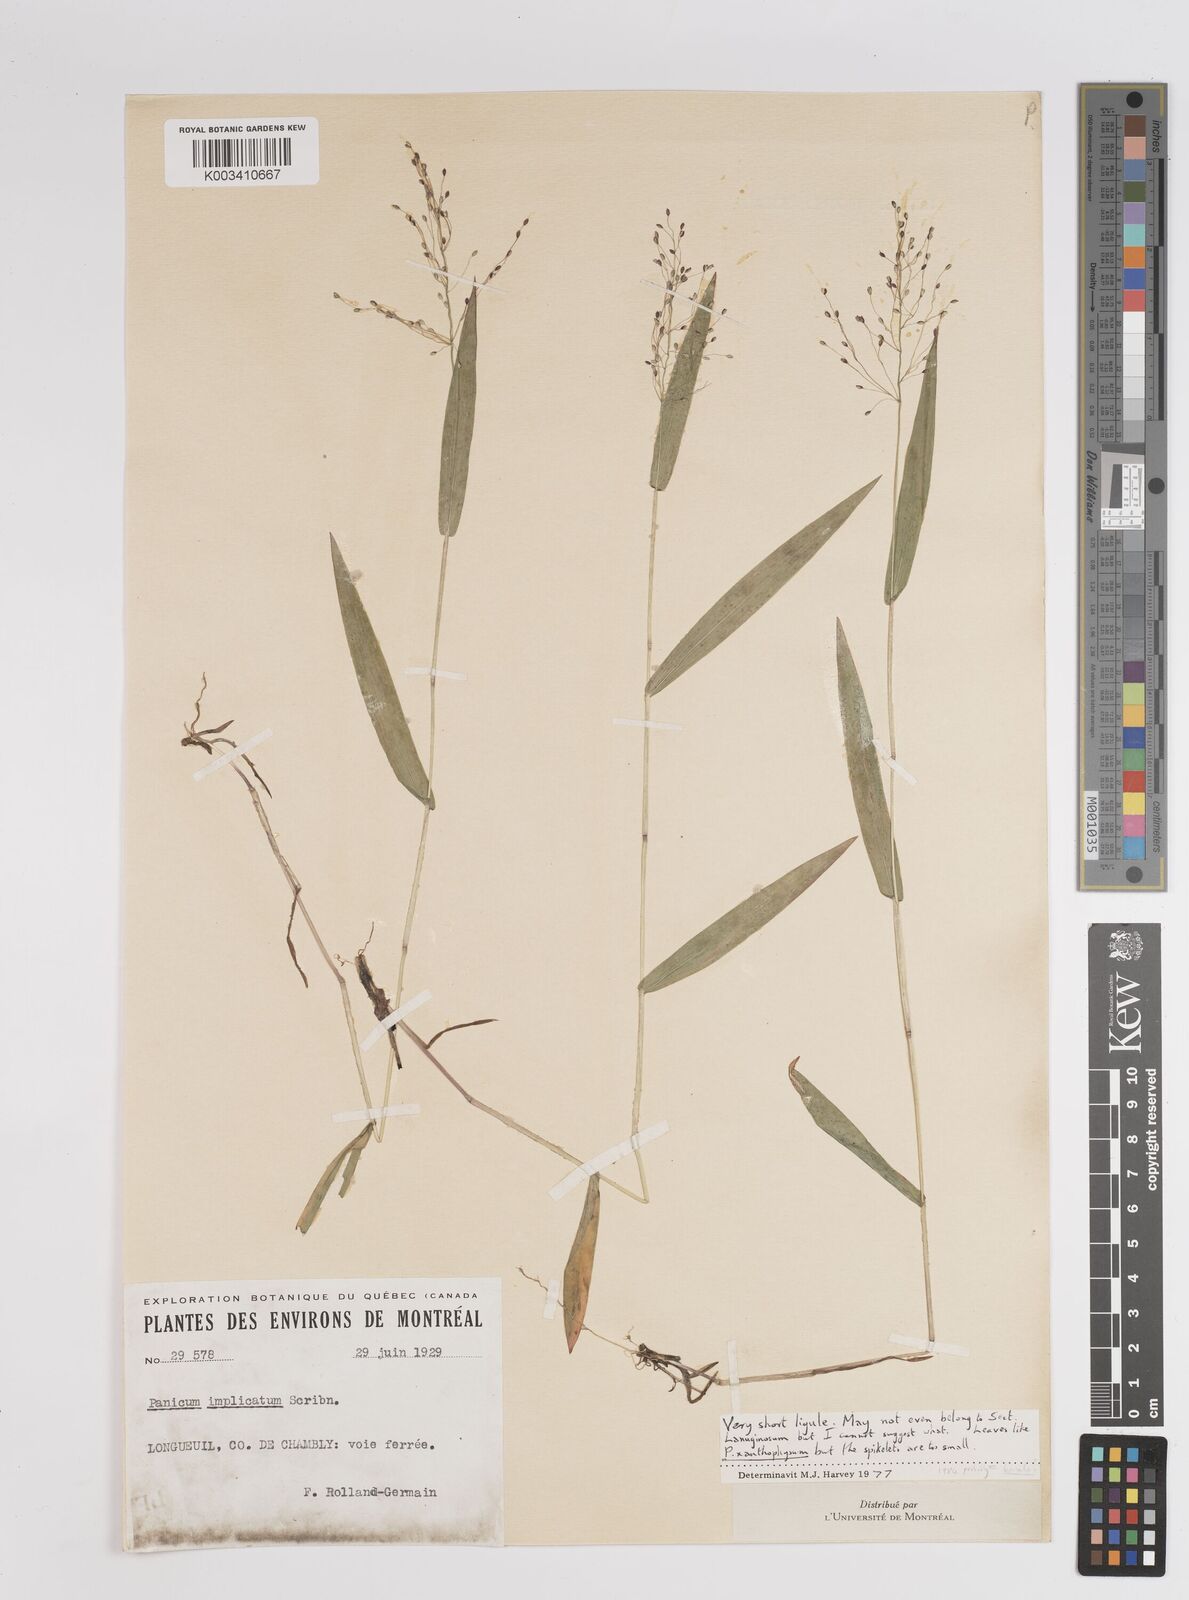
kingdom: Plantae
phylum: Tracheophyta
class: Liliopsida
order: Poales
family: Poaceae
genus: Dichanthelium
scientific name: Dichanthelium implicatum
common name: Slender-stemmed panicgrass
